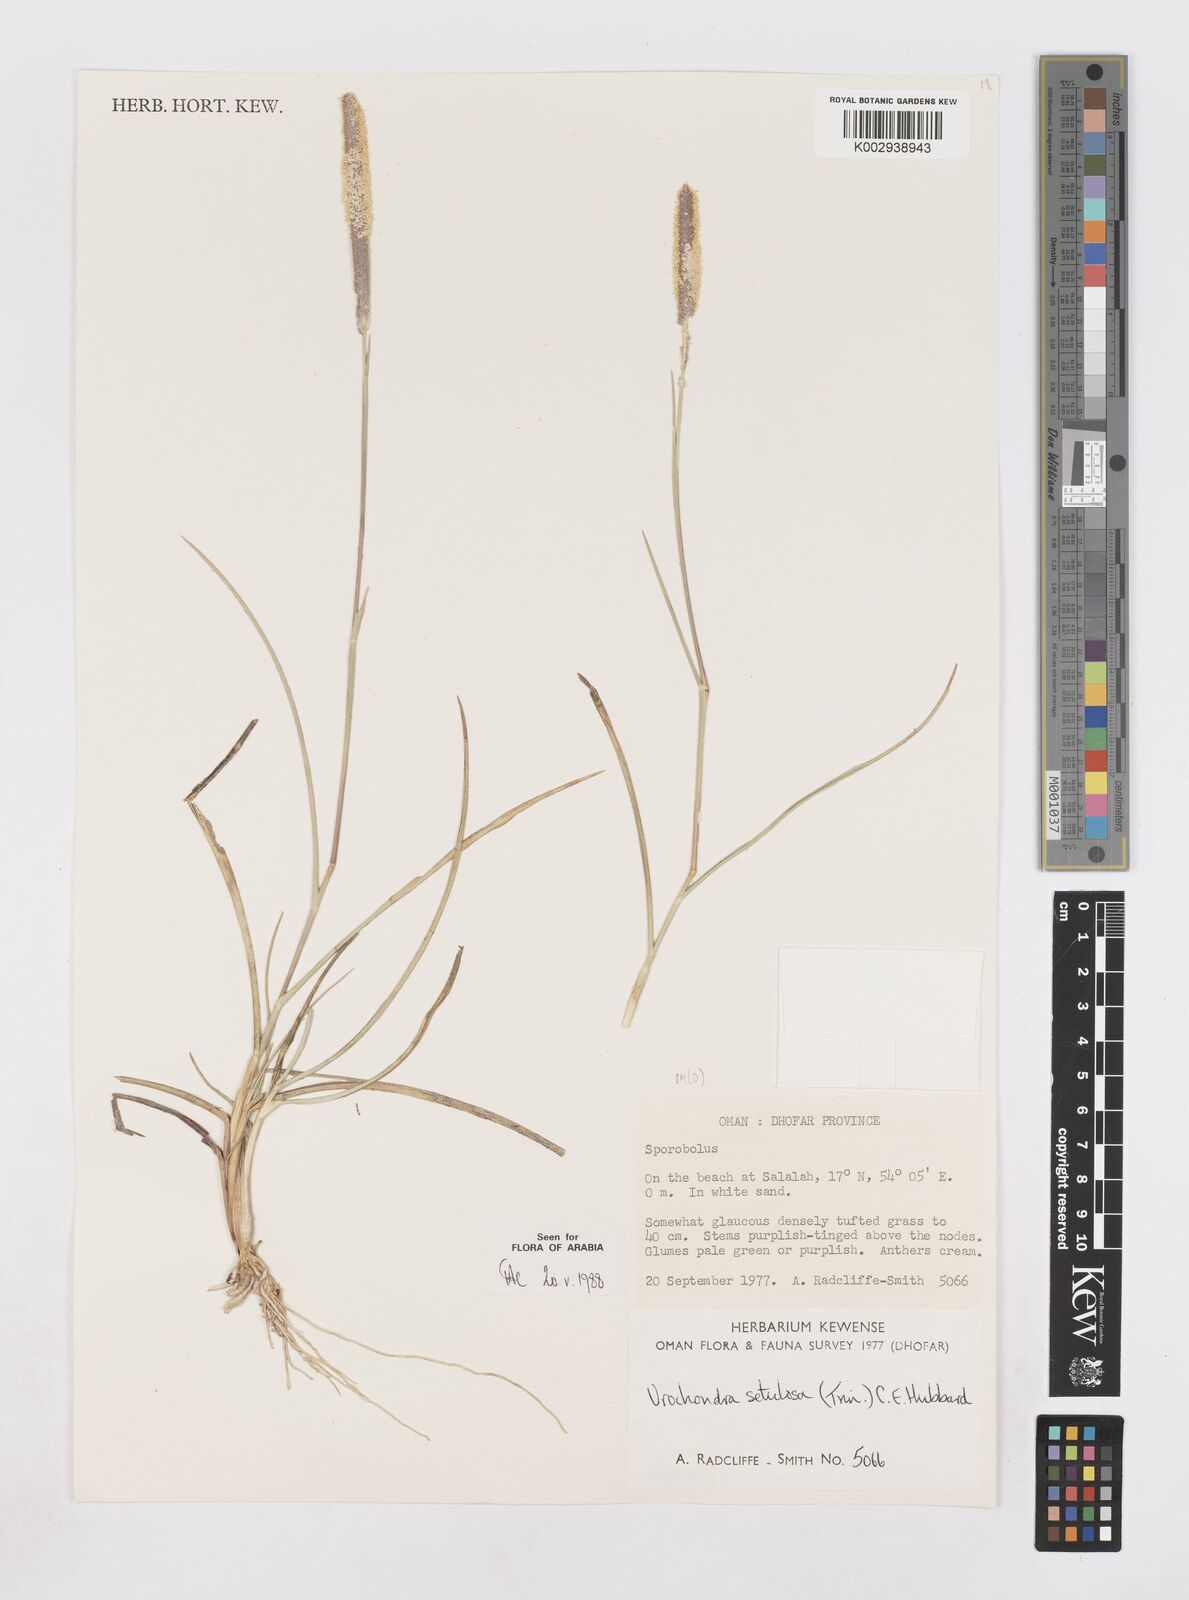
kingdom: Plantae
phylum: Tracheophyta
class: Liliopsida
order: Poales
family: Poaceae
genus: Urochondra
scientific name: Urochondra setulosa
